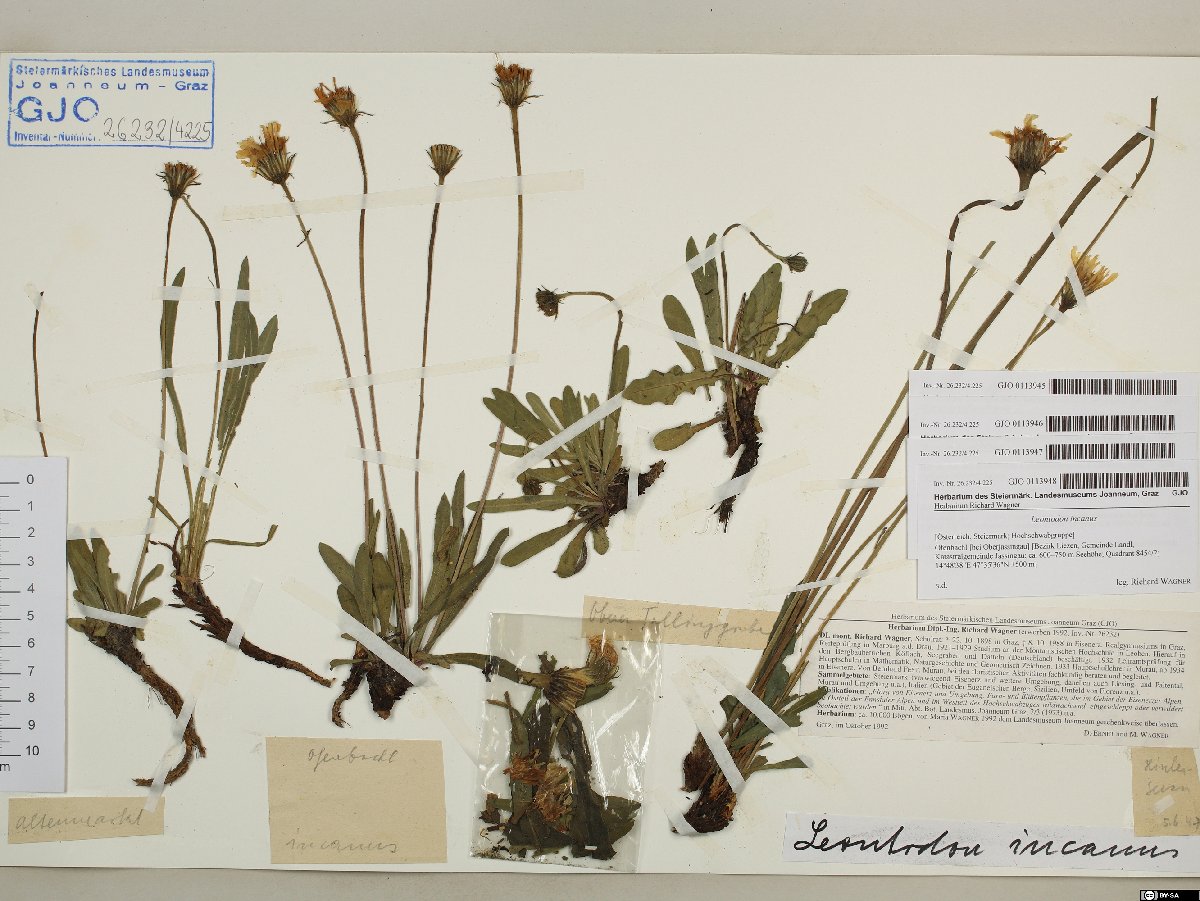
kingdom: Plantae
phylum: Tracheophyta
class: Magnoliopsida
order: Asterales
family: Asteraceae
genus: Leontodon
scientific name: Leontodon incanus
